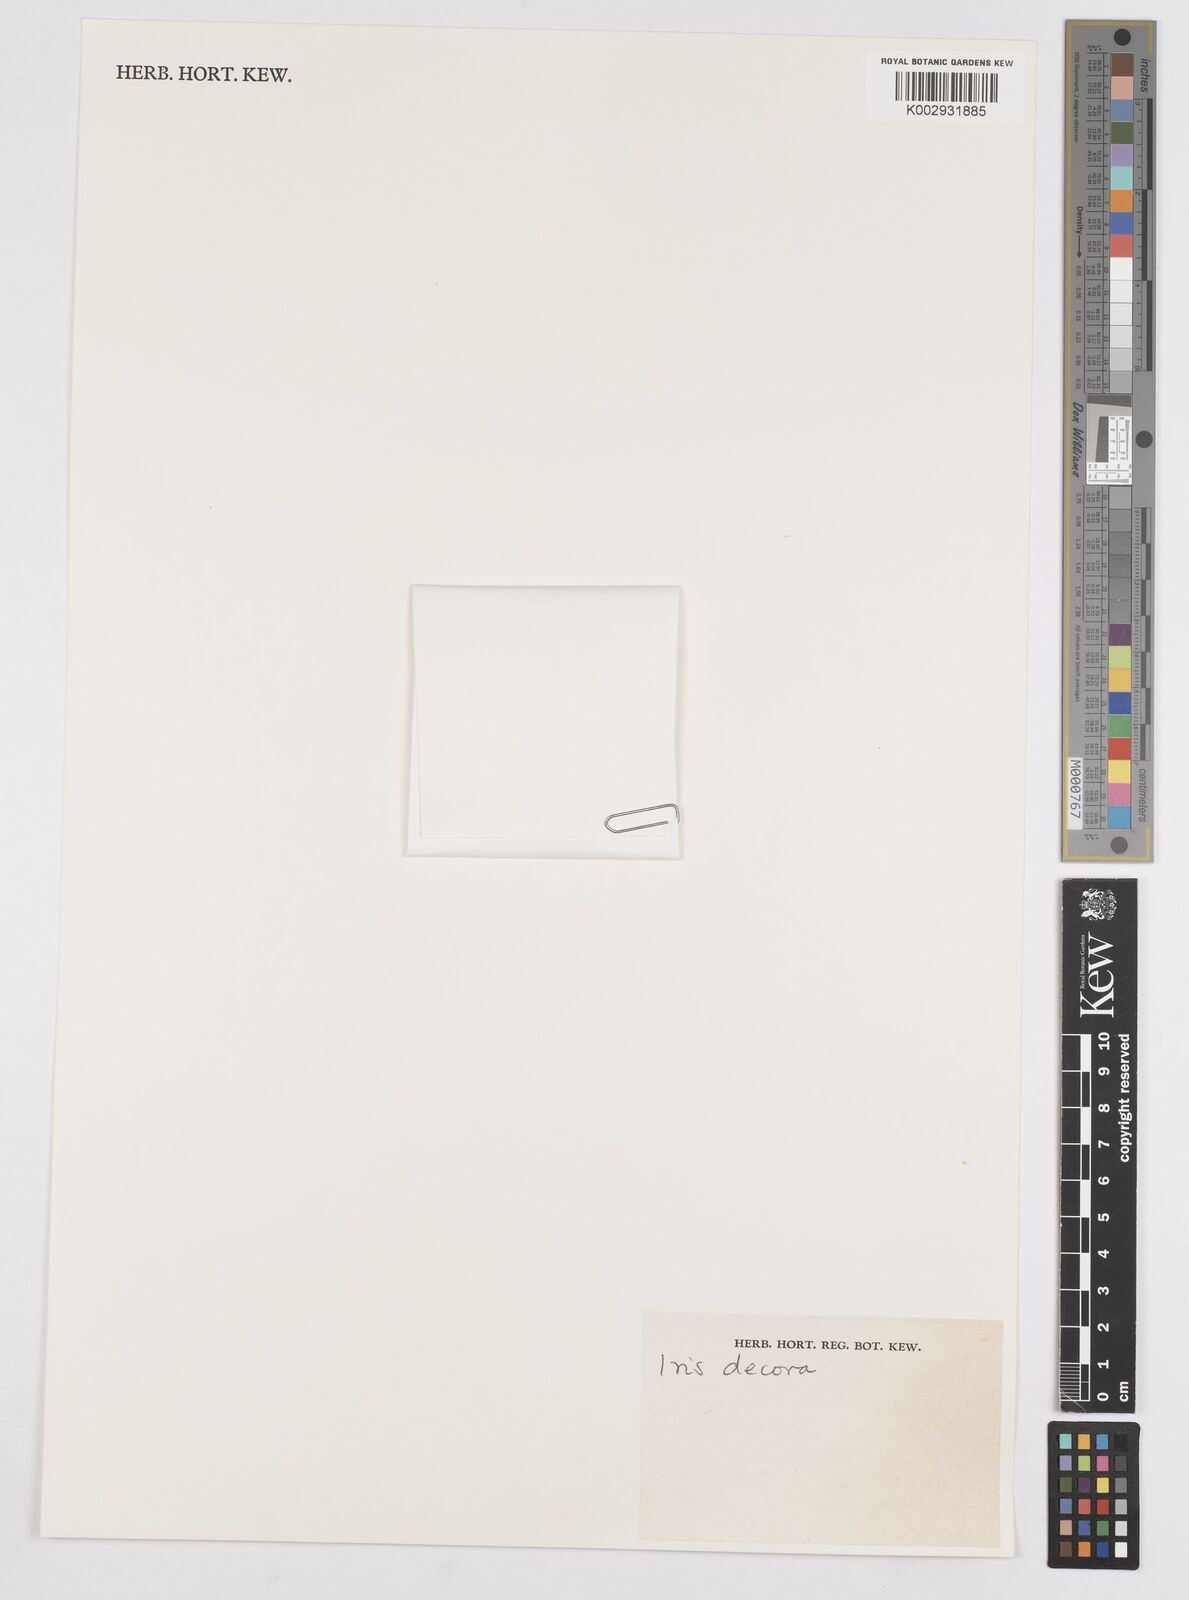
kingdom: Plantae
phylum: Tracheophyta
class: Liliopsida
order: Asparagales
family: Iridaceae
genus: Iris
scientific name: Iris decora
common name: Nepal iris
